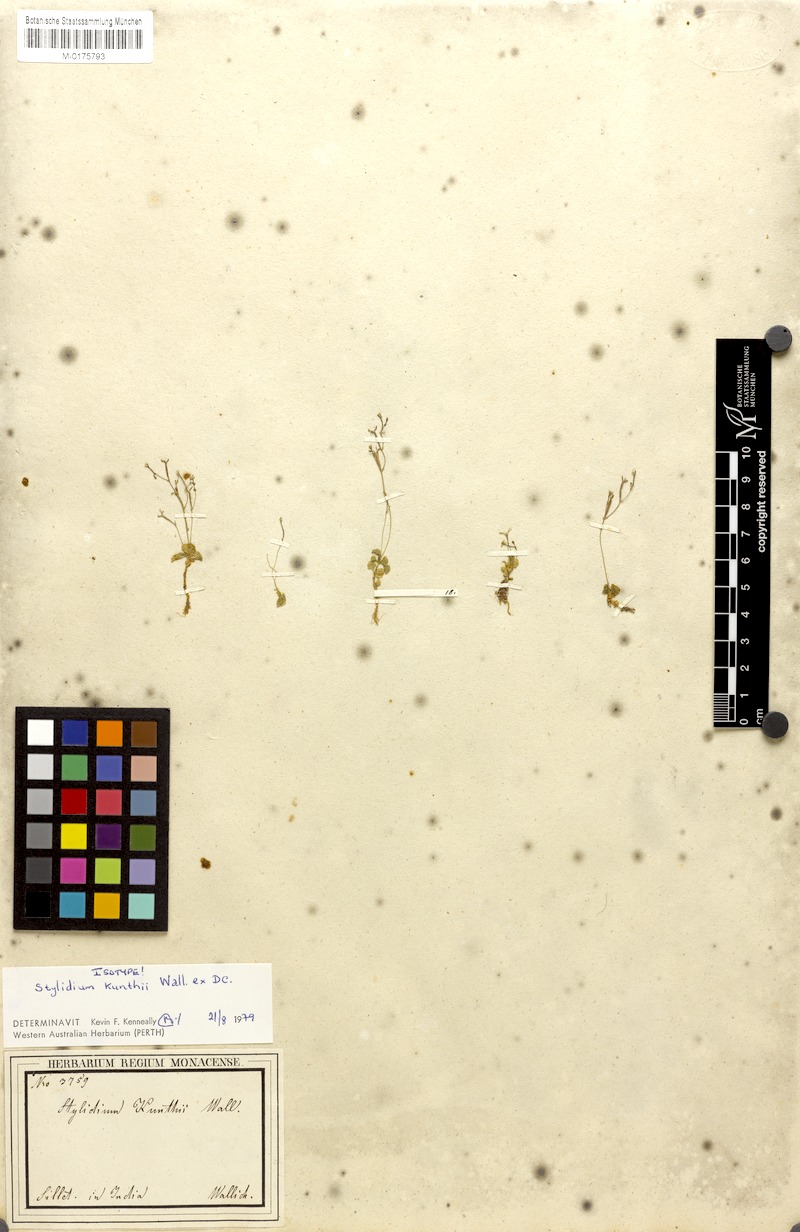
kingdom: Plantae
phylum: Tracheophyta
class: Magnoliopsida
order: Asterales
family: Stylidiaceae
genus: Stylidium
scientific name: Stylidium uliginosum
